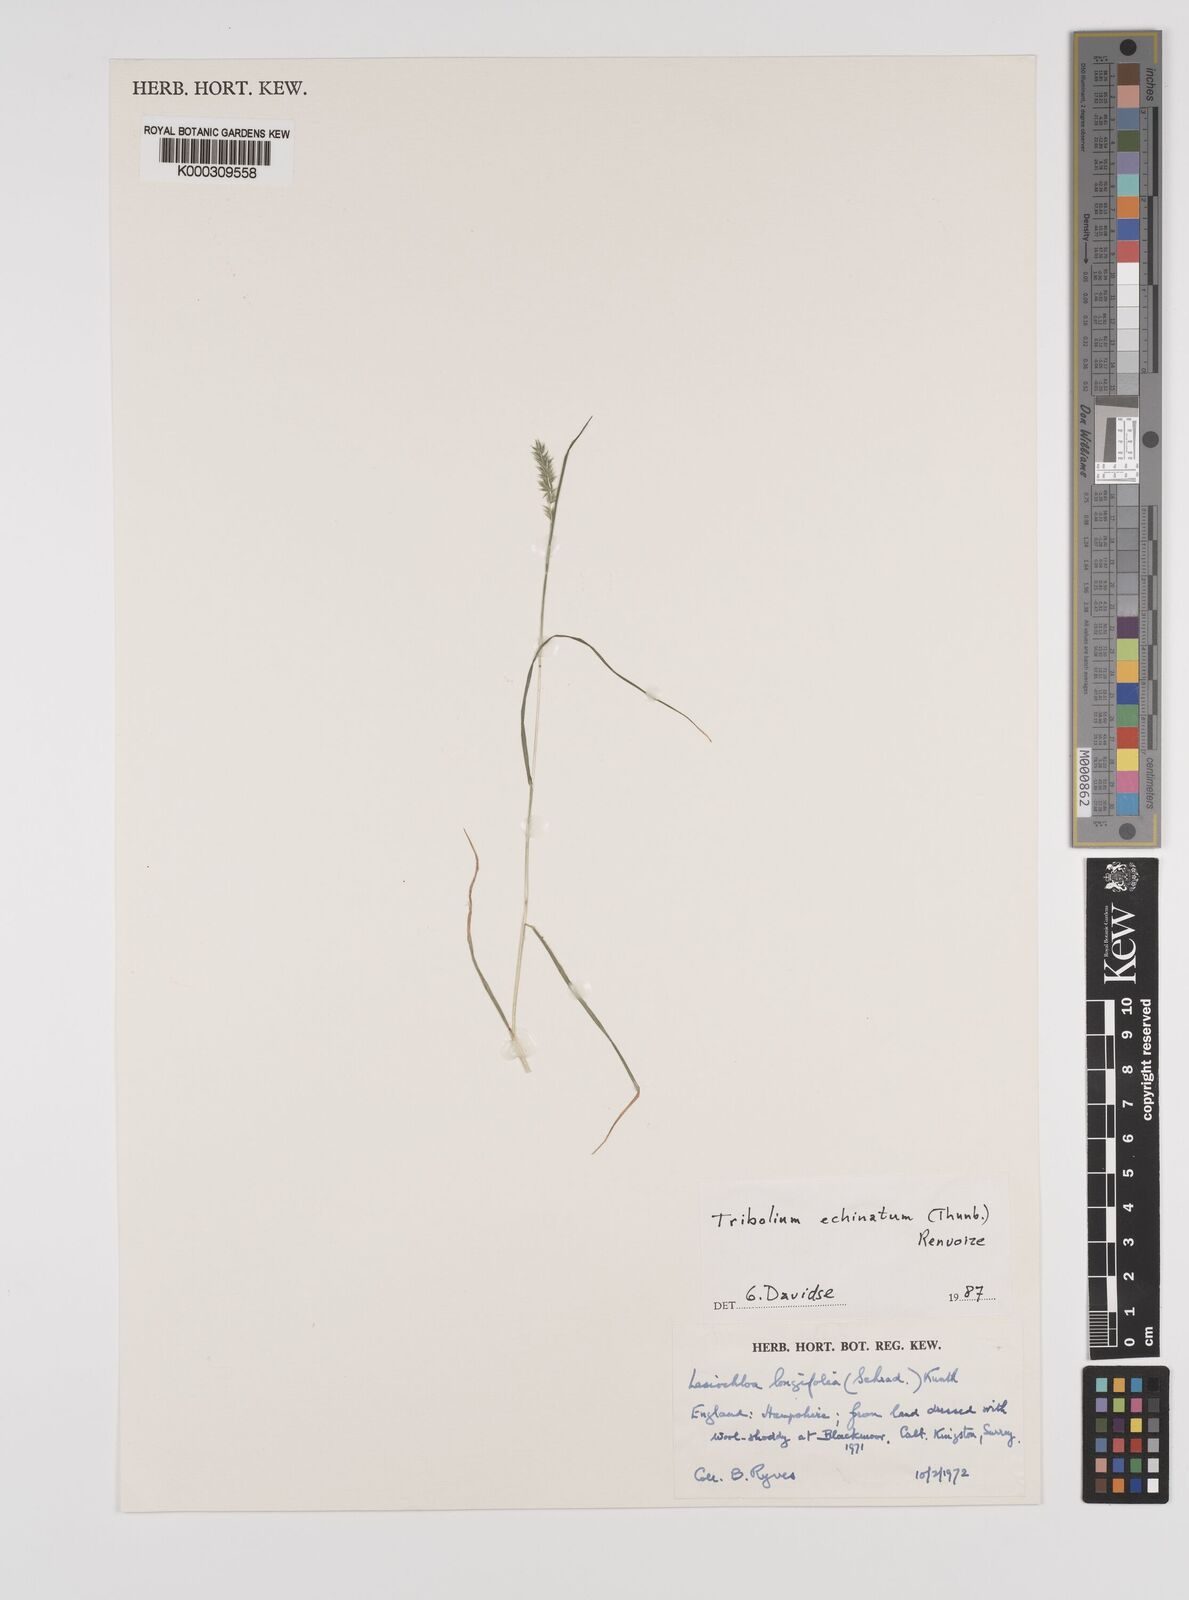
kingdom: Plantae
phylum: Tracheophyta
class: Liliopsida
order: Poales
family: Poaceae
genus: Tribolium
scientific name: Tribolium echinatum
